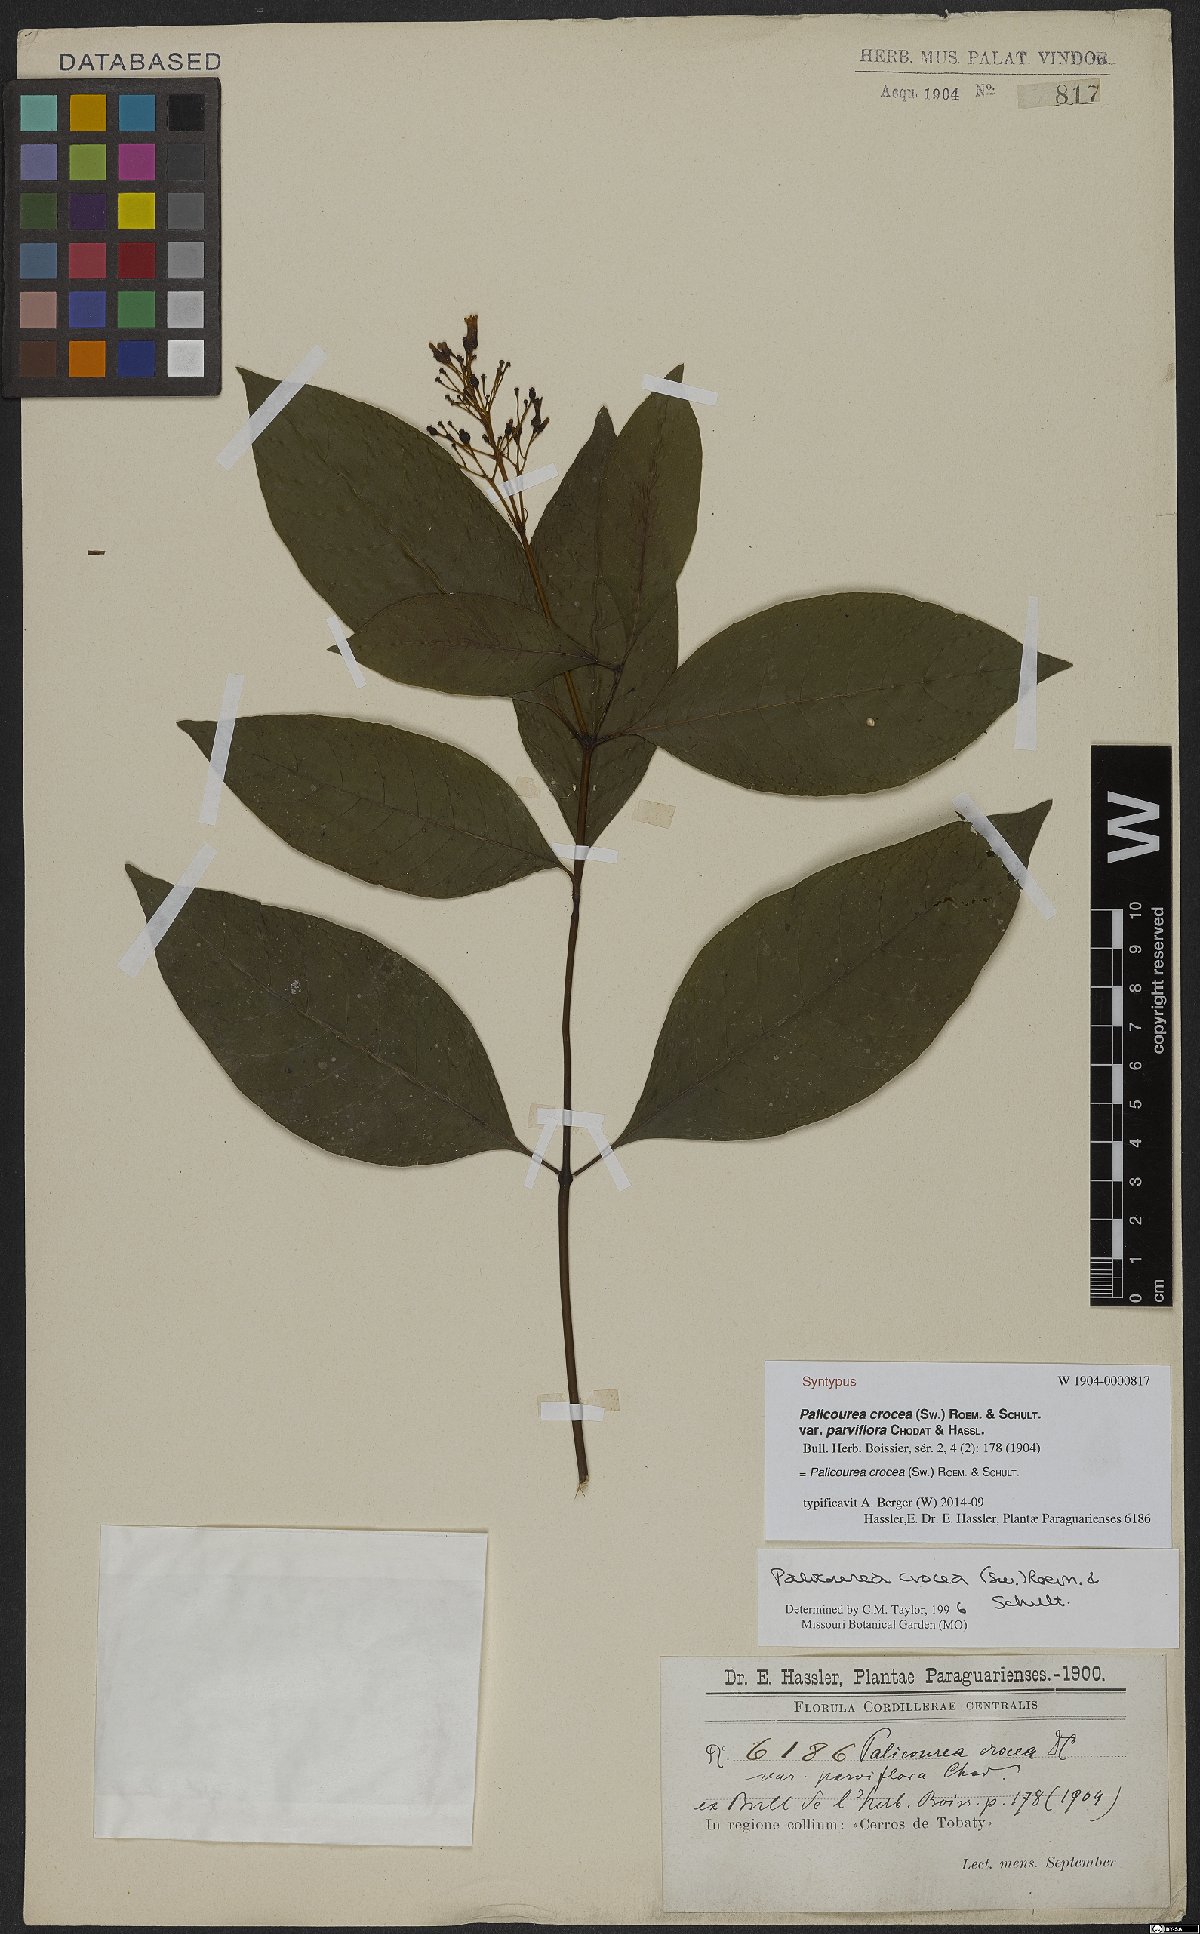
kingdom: Plantae
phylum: Tracheophyta
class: Magnoliopsida
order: Gentianales
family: Rubiaceae
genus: Palicourea
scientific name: Palicourea crocea
